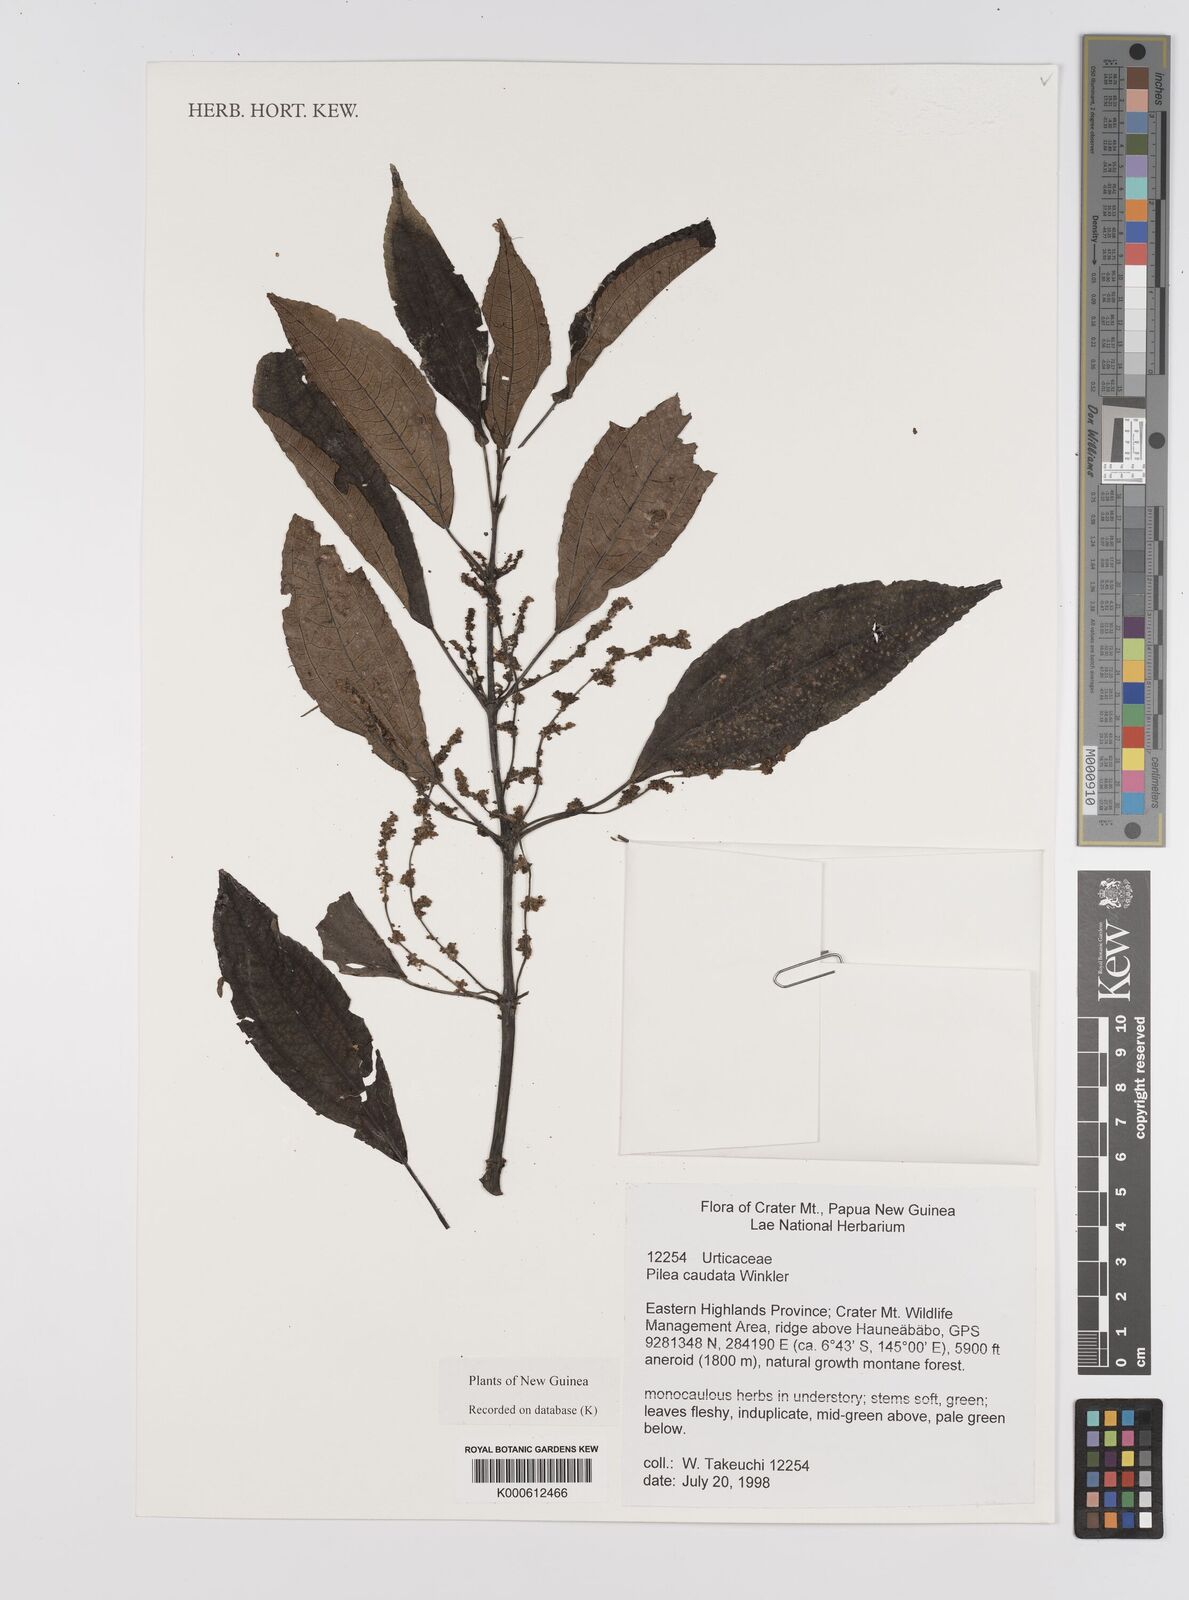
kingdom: Plantae
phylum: Tracheophyta
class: Magnoliopsida
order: Rosales
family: Urticaceae
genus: Pilea
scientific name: Pilea caudata
